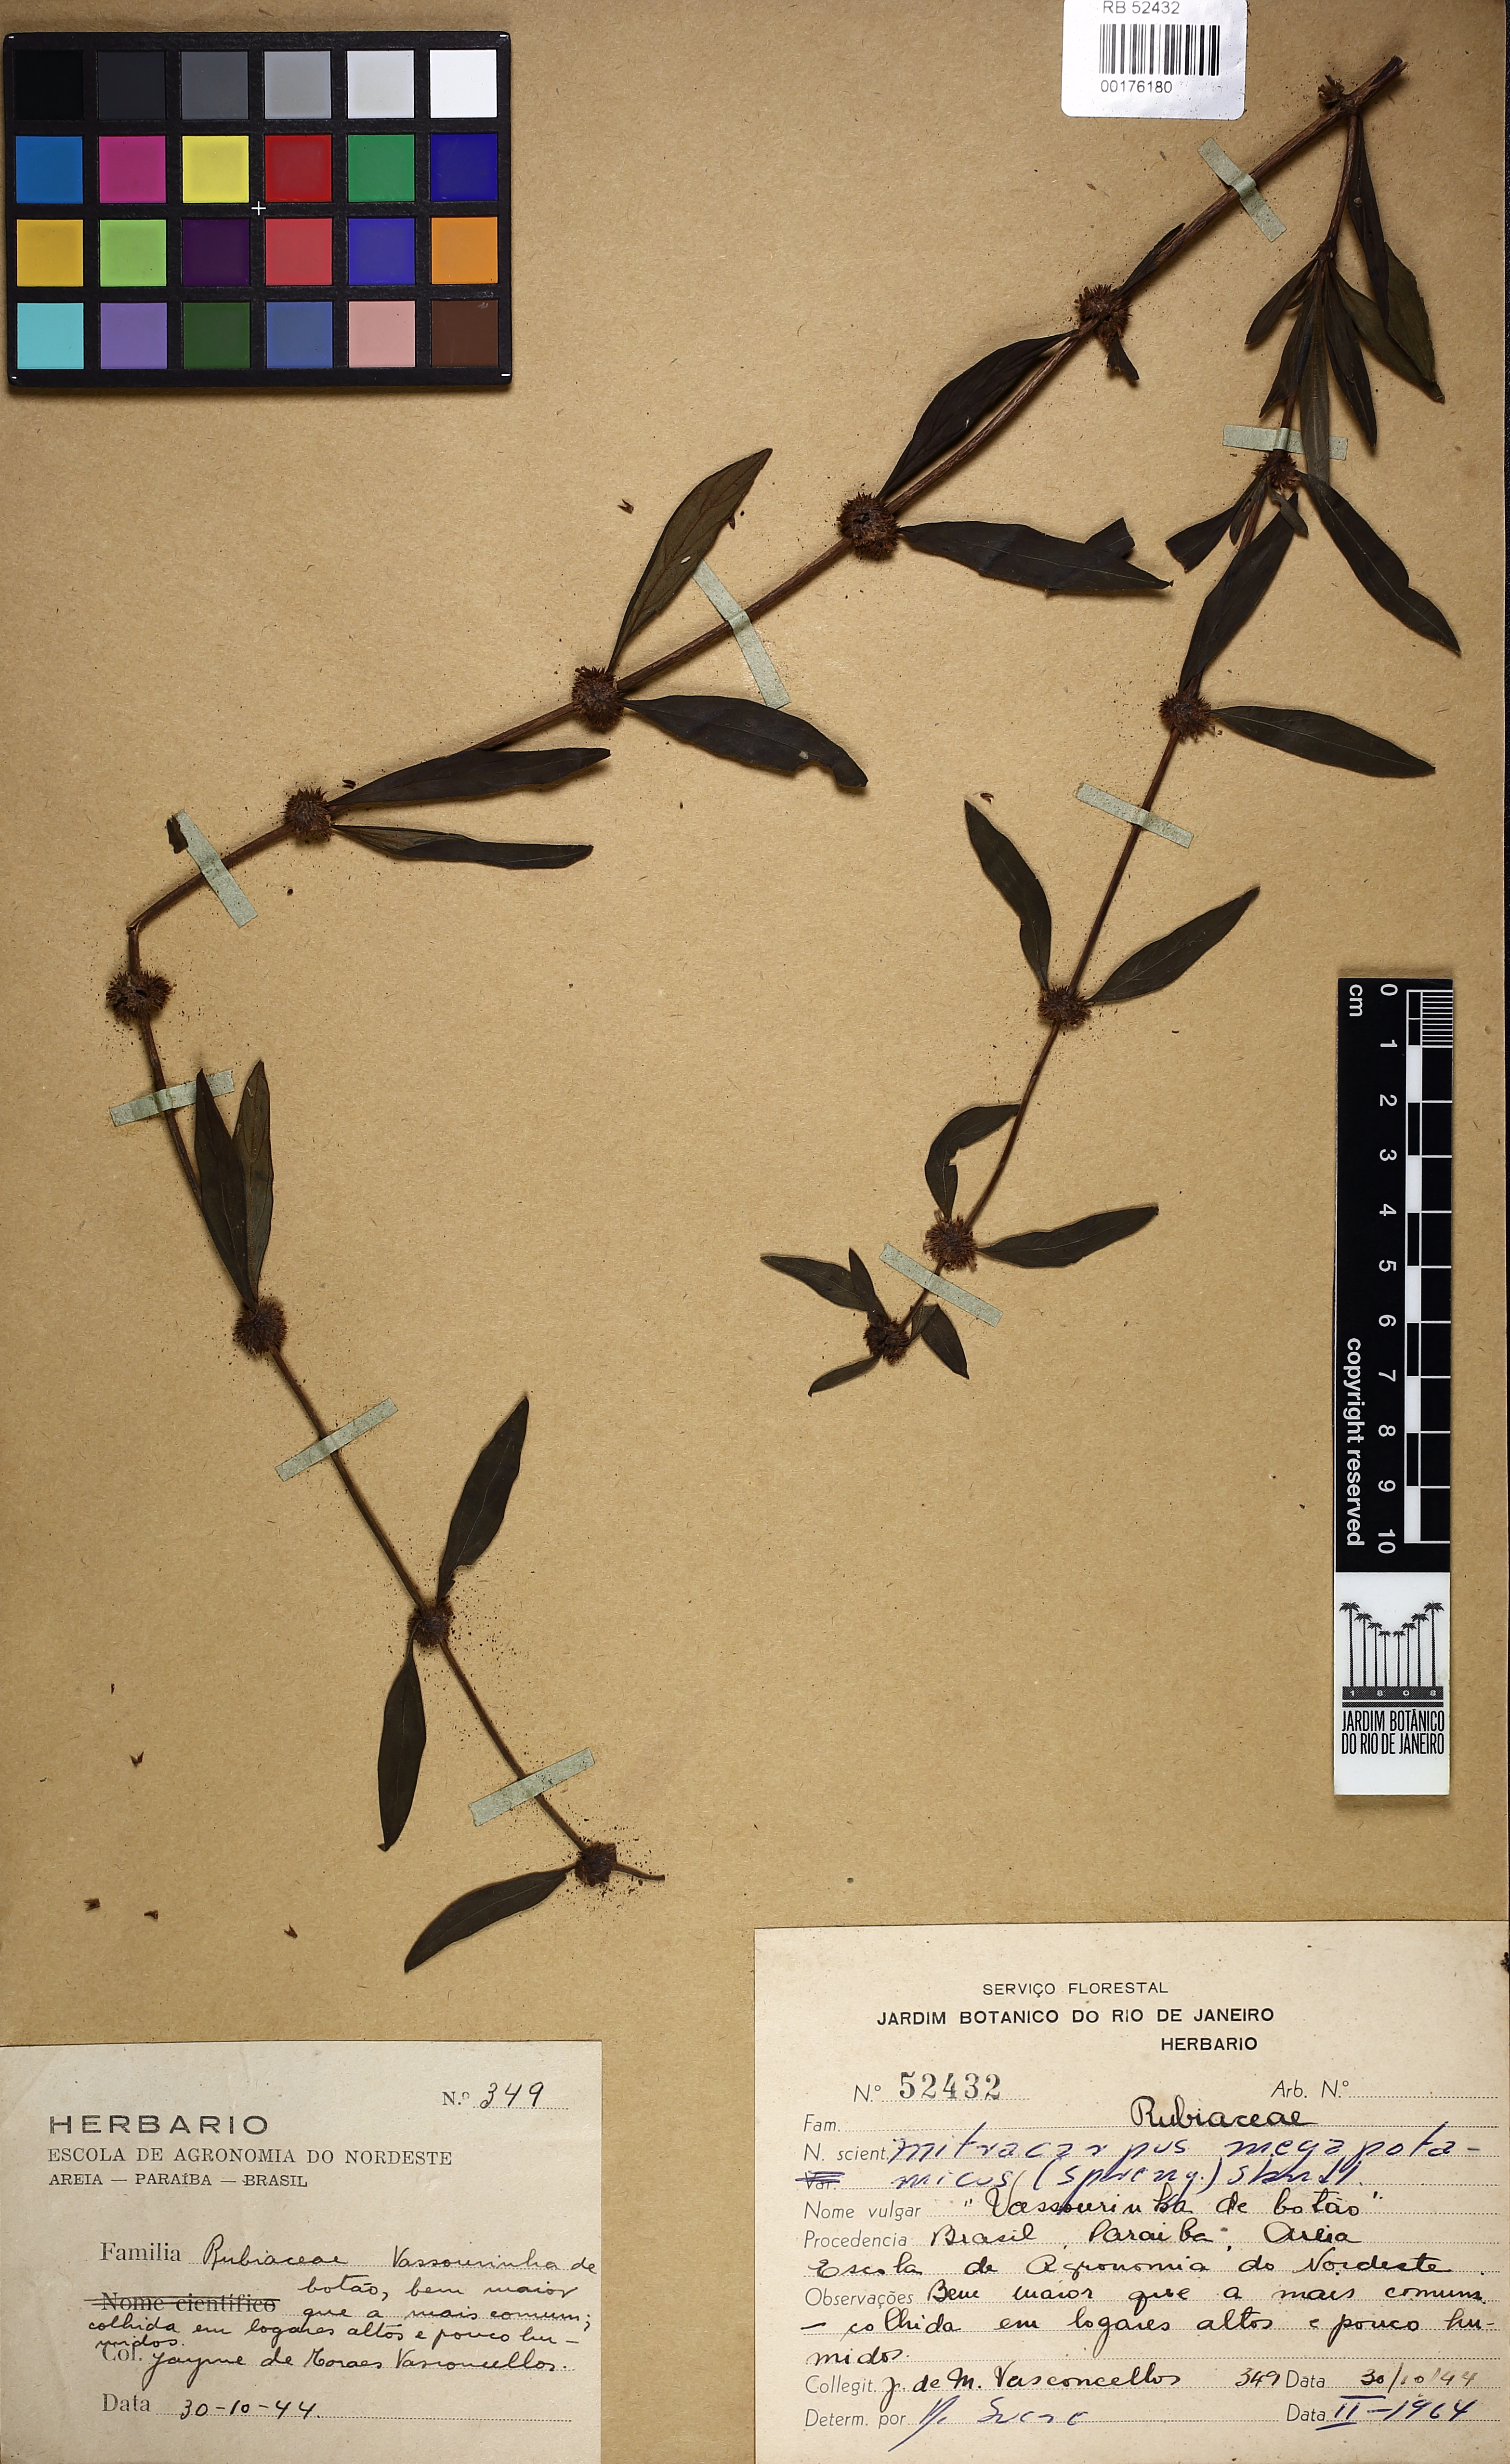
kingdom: Plantae
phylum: Tracheophyta
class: Magnoliopsida
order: Gentianales
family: Rubiaceae
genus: Mitracarpus
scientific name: Mitracarpus megapotamicus
